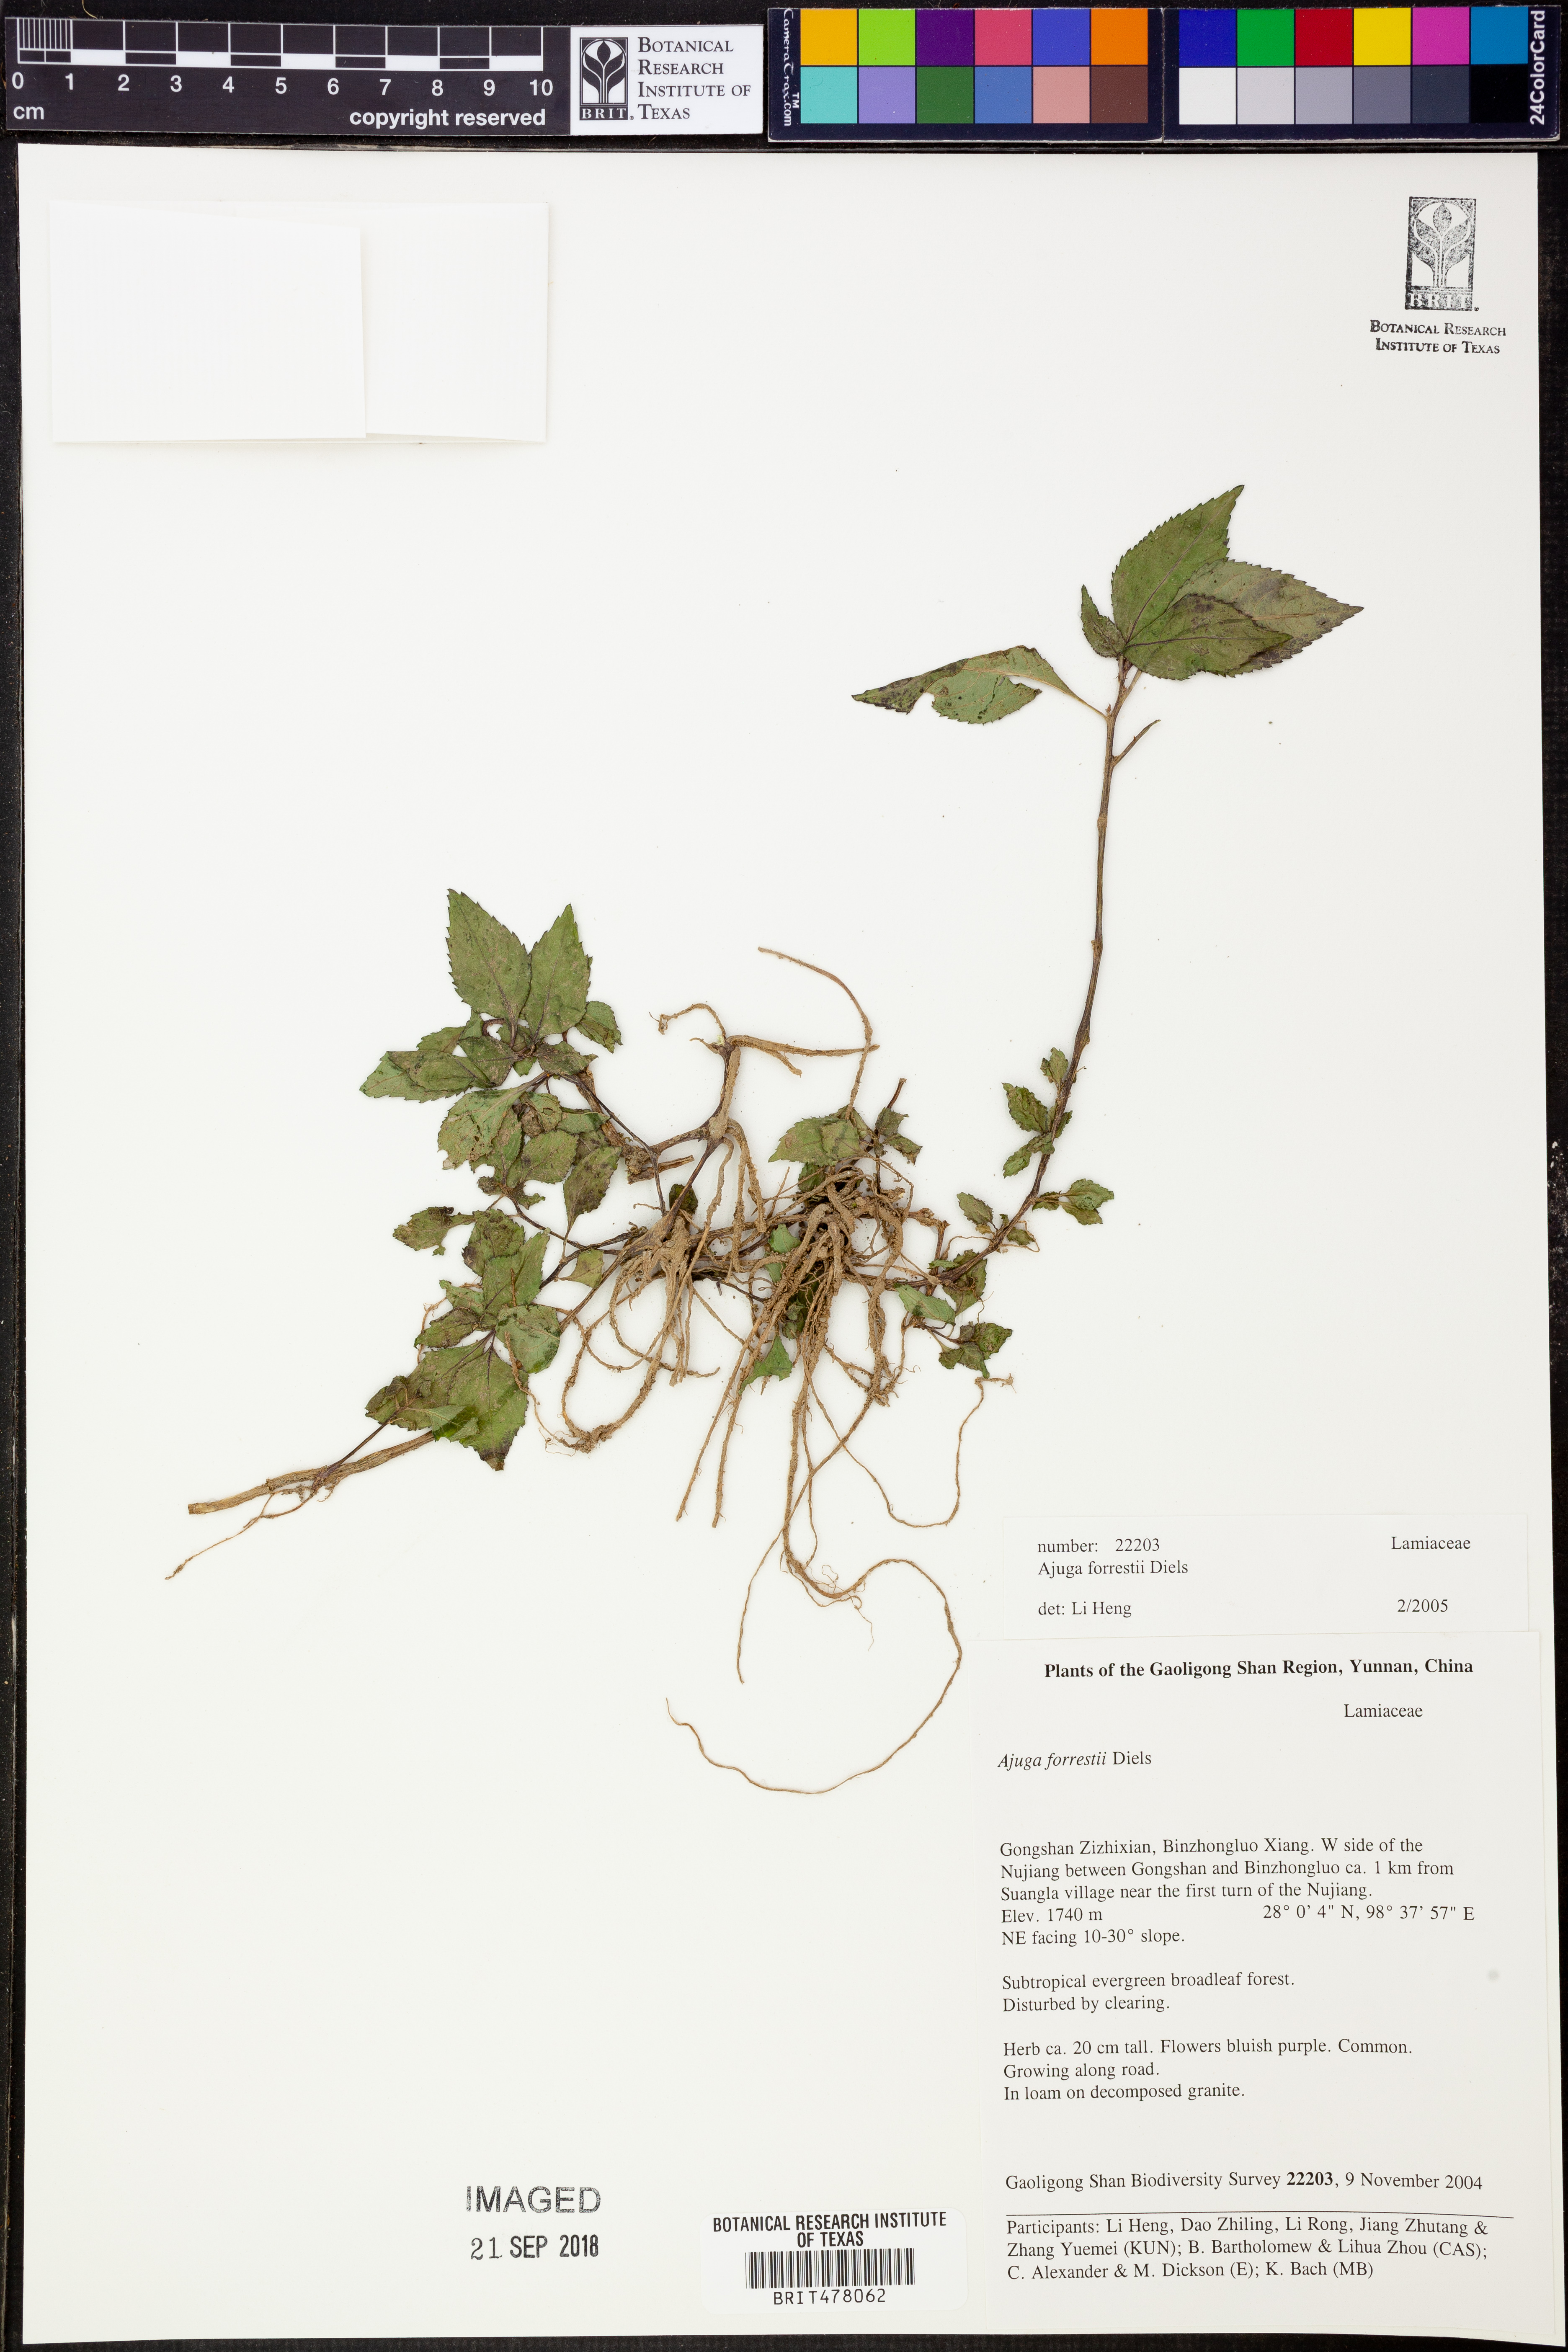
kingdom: Plantae
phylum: Tracheophyta
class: Magnoliopsida
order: Lamiales
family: Lamiaceae
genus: Ajuga
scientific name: Ajuga forrestii
